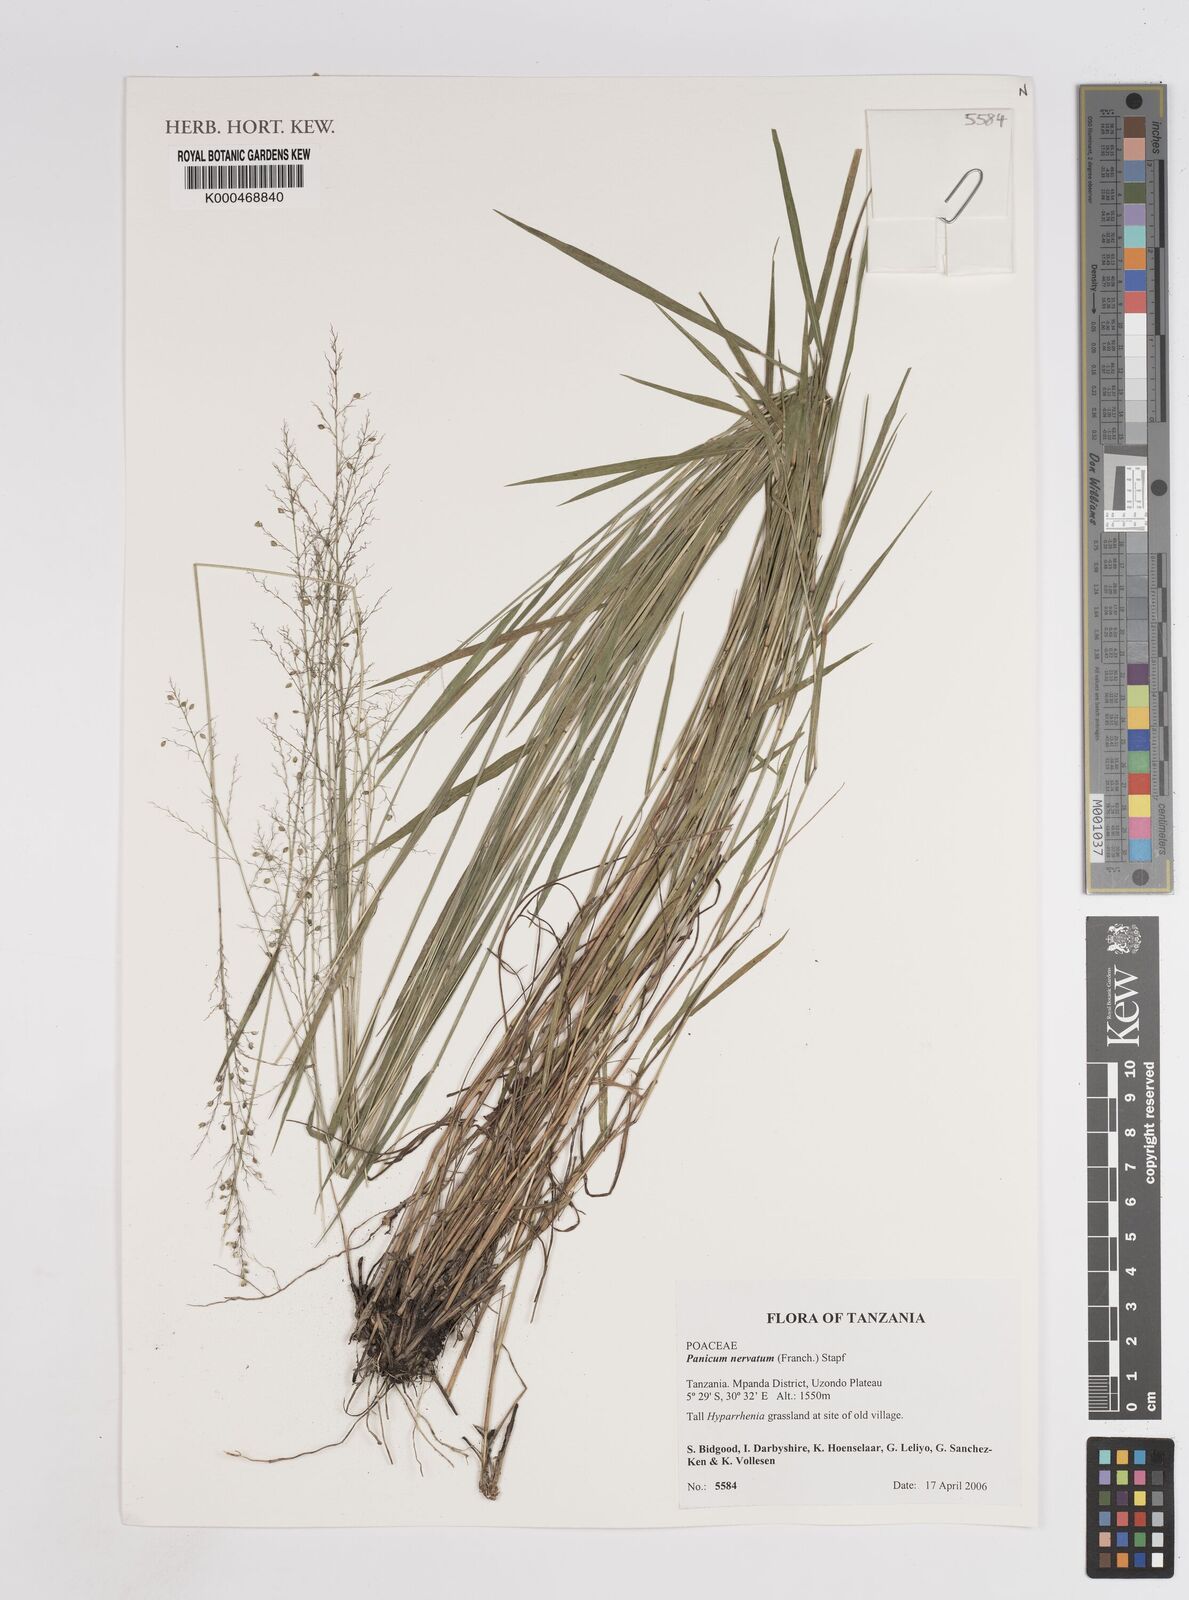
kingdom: Plantae
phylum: Tracheophyta
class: Liliopsida
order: Poales
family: Poaceae
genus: Trichanthecium
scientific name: Trichanthecium nervatum
